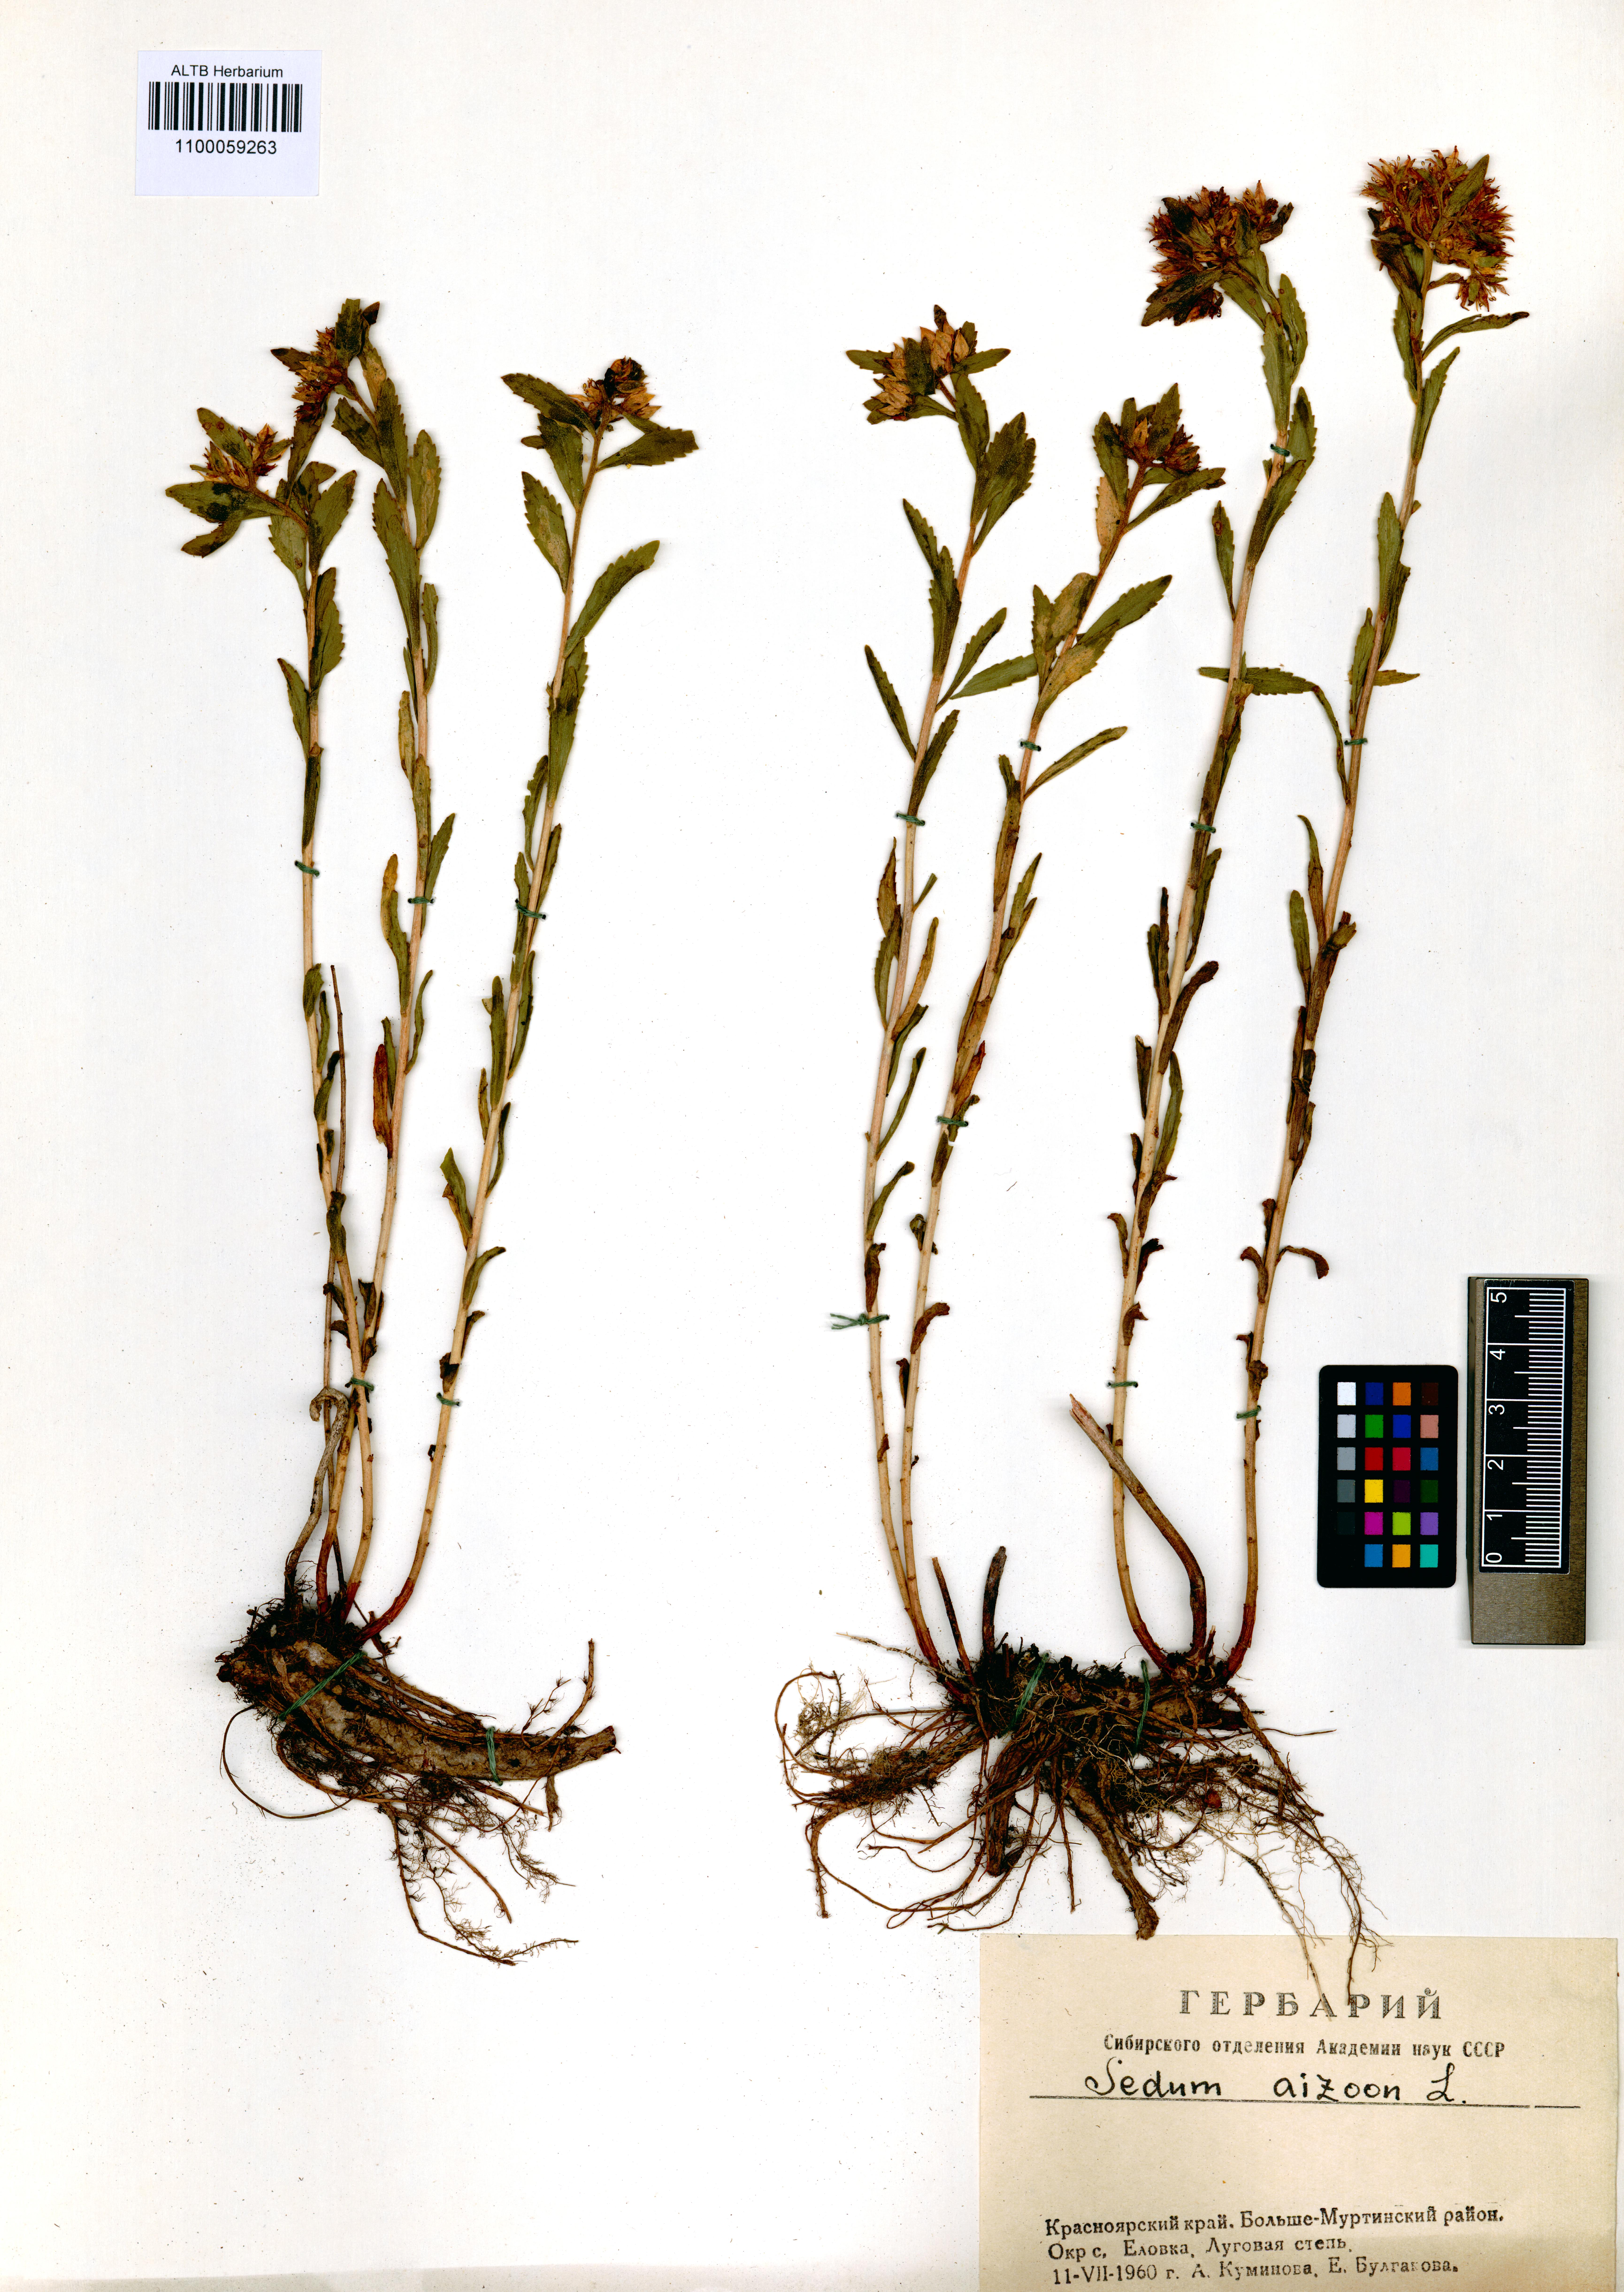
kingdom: Plantae
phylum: Tracheophyta
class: Magnoliopsida
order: Saxifragales
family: Crassulaceae
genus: Phedimus
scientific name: Phedimus aizoon
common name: Orpin aizoon
